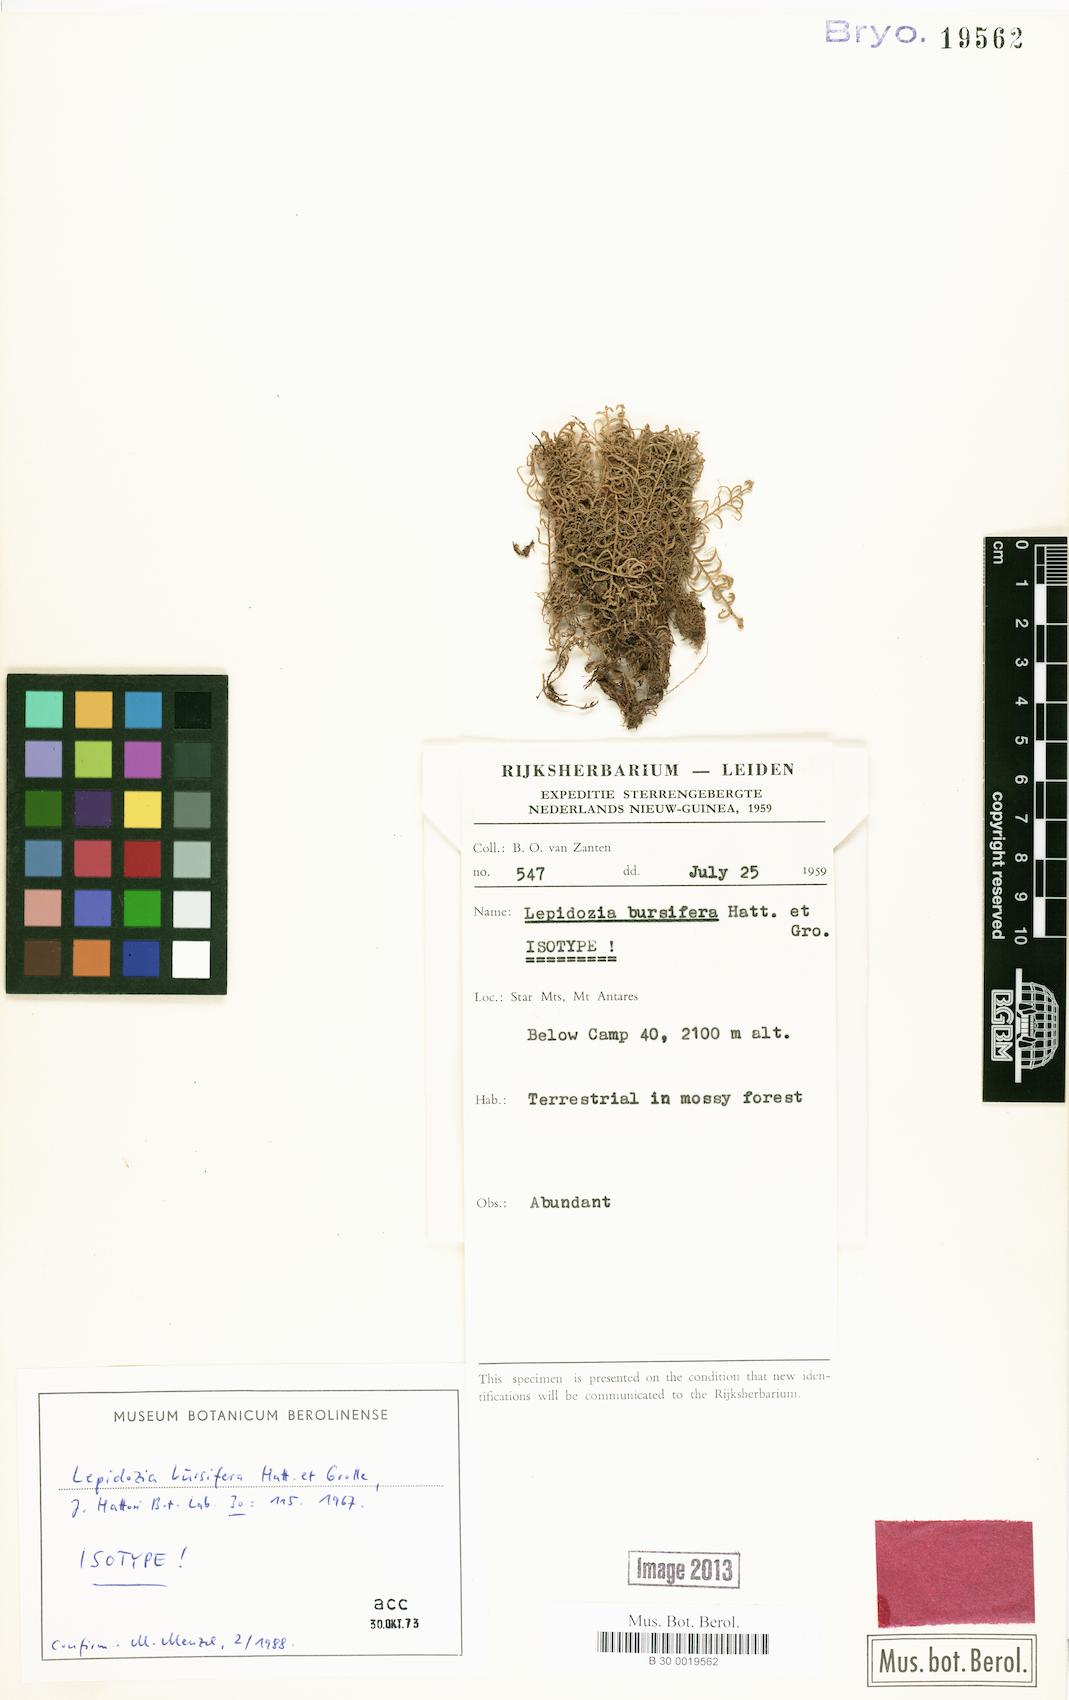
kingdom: Plantae
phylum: Marchantiophyta
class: Jungermanniopsida
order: Jungermanniales
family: Lepidoziaceae
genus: Lepidozia
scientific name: Lepidozia bursifera
